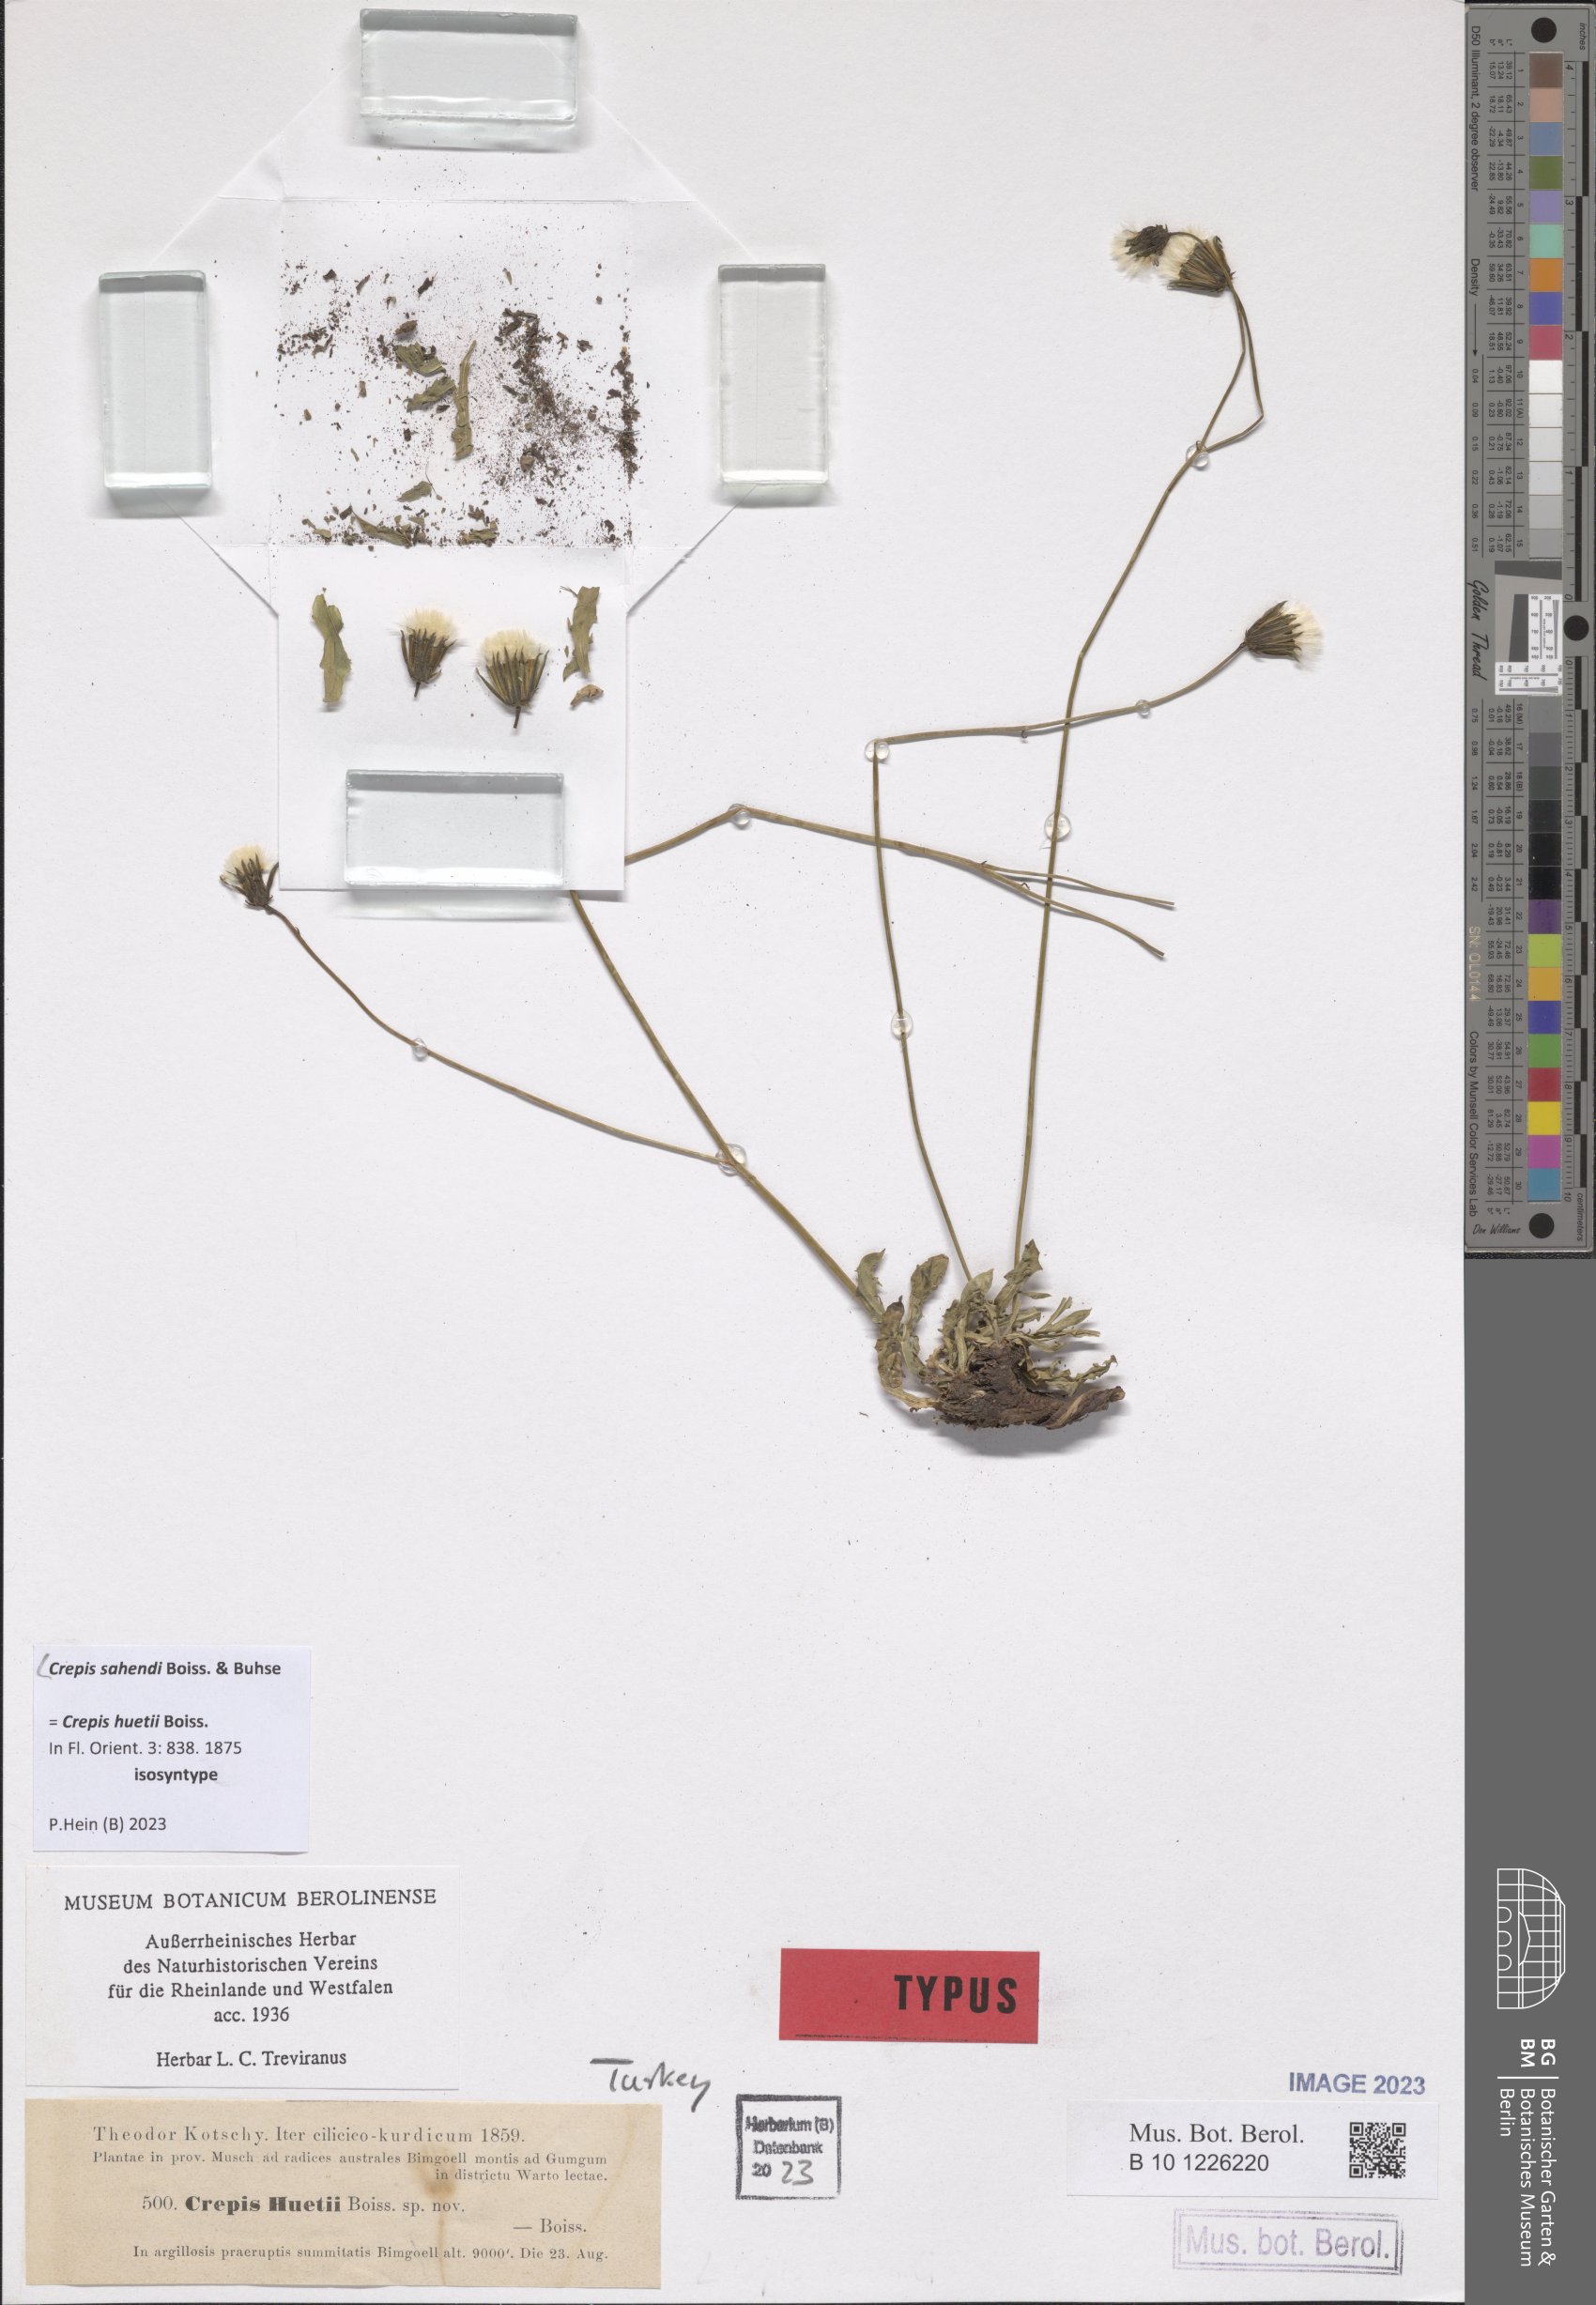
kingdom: Plantae
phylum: Tracheophyta
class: Magnoliopsida
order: Asterales
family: Asteraceae
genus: Crepis
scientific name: Crepis sahendii
